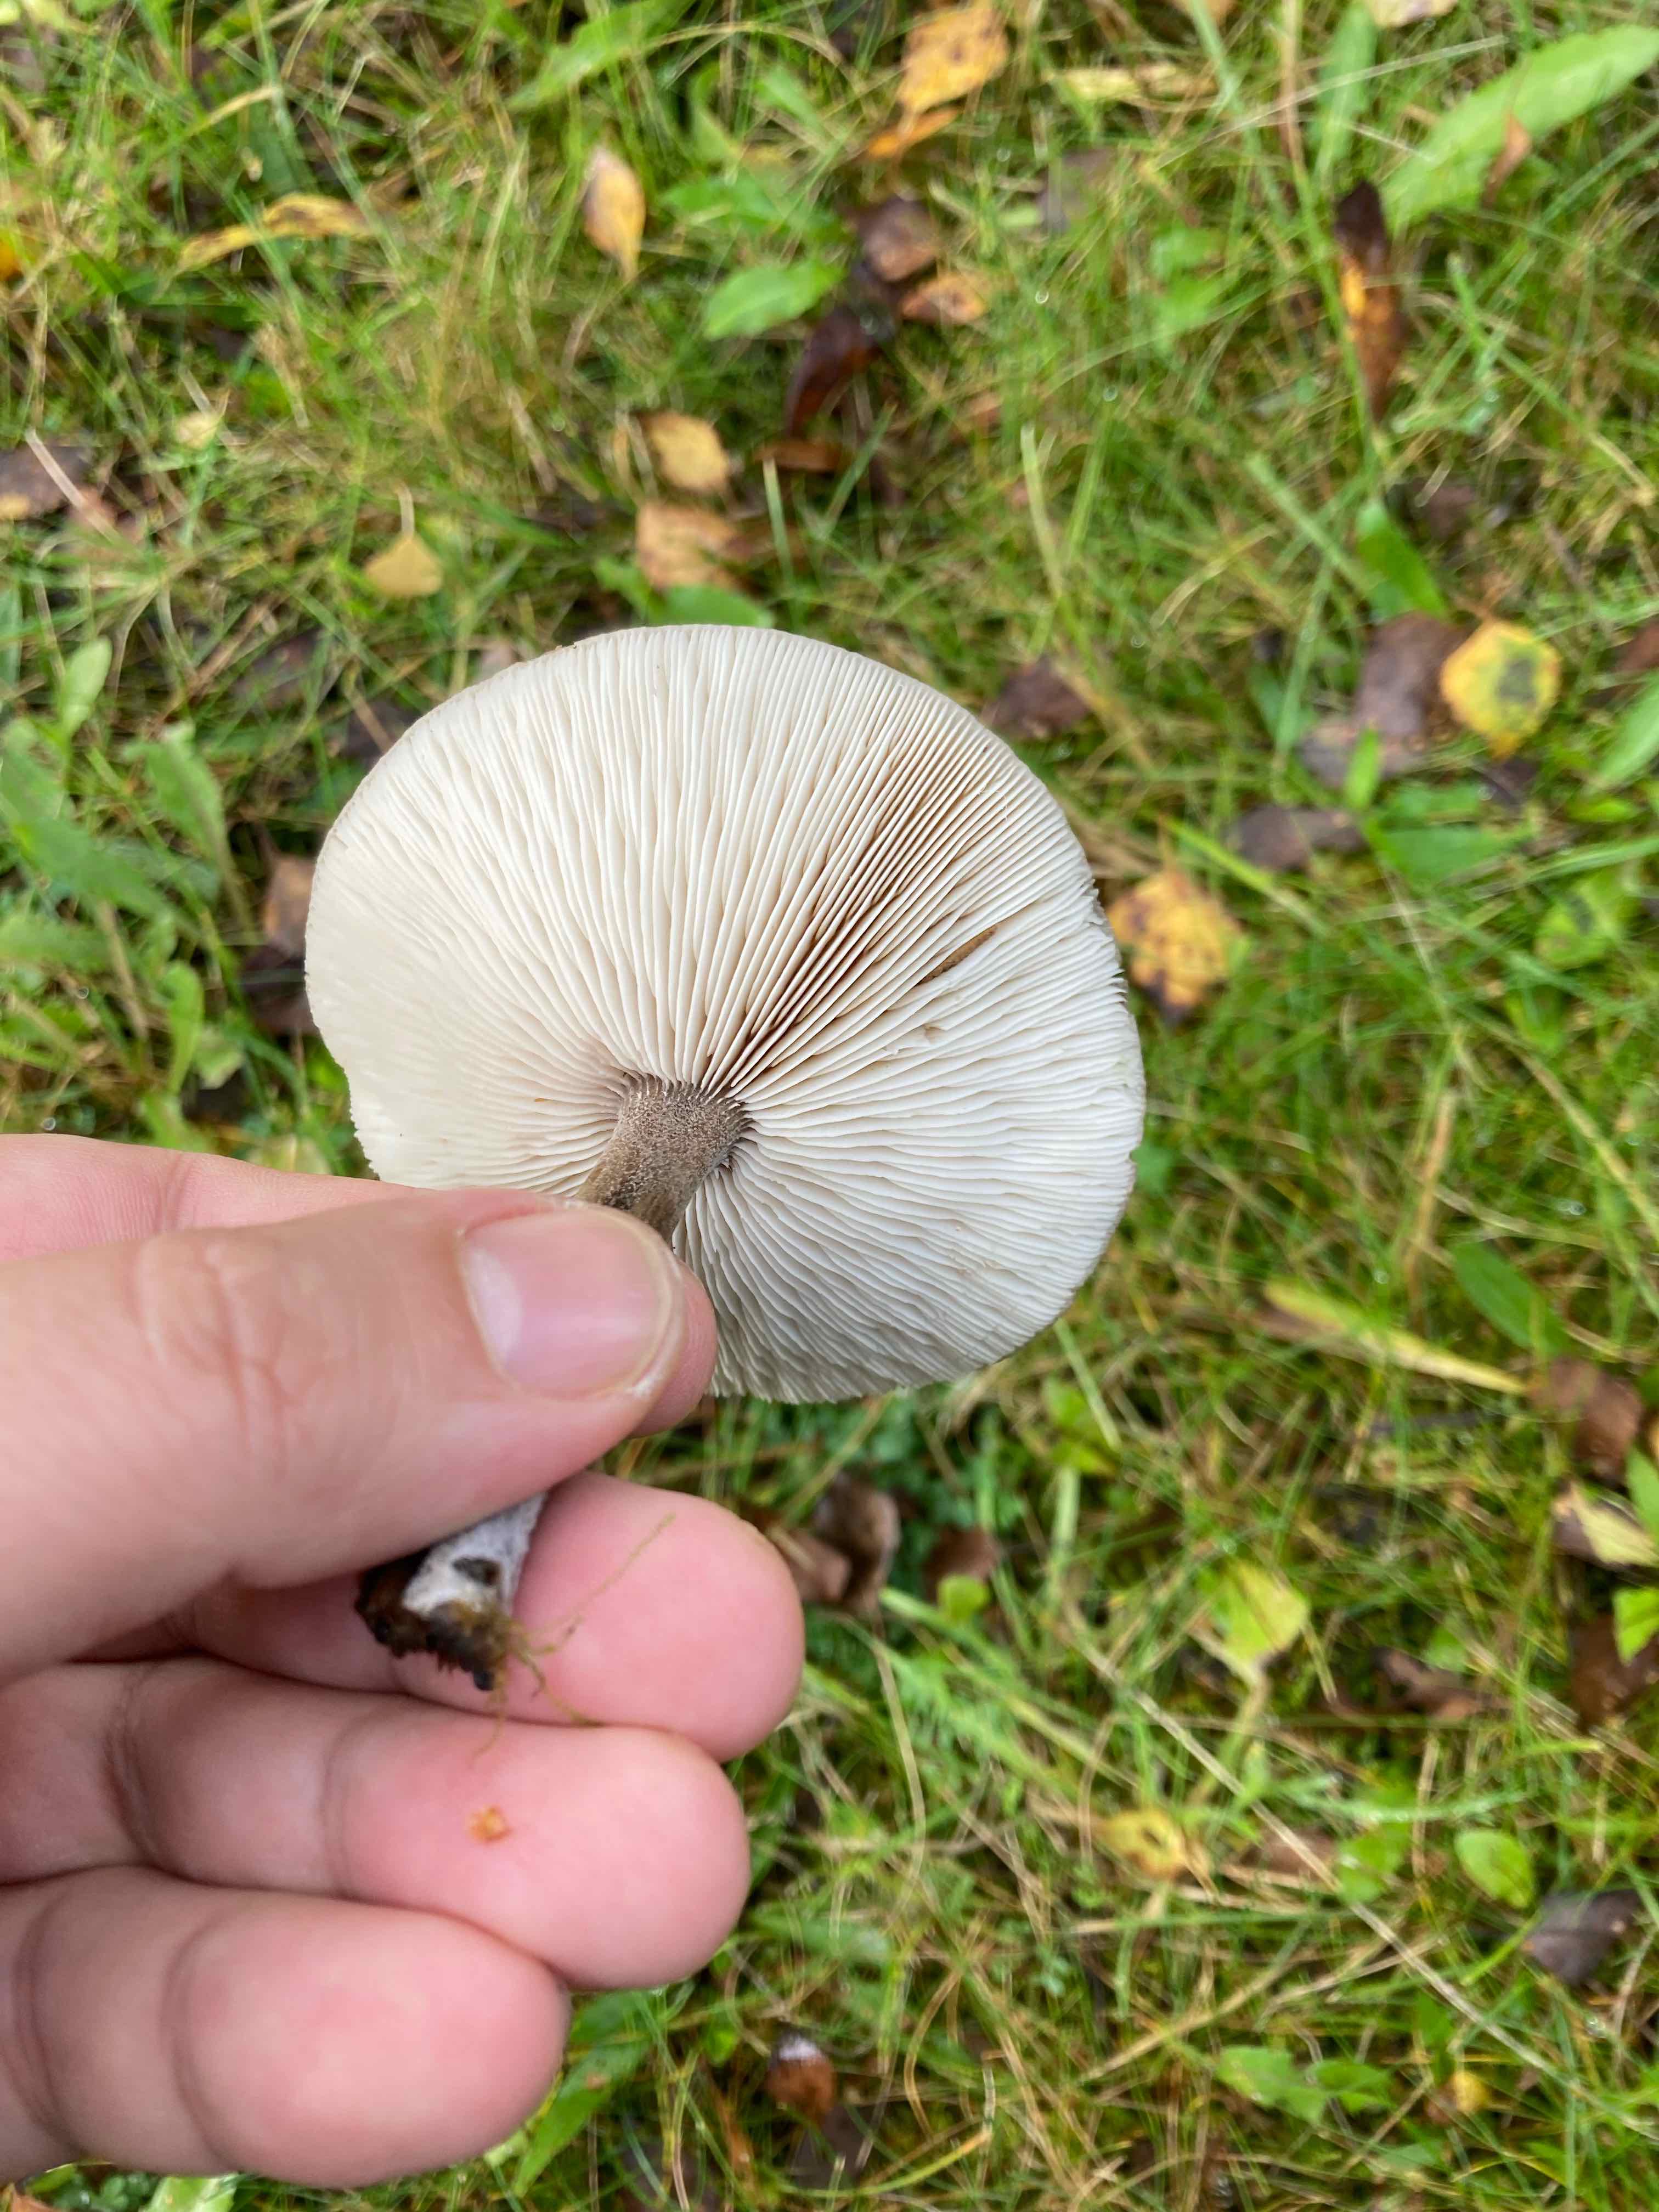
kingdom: Fungi
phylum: Basidiomycota
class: Agaricomycetes
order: Agaricales
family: Tricholomataceae
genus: Melanoleuca
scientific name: Melanoleuca
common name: munkehat
